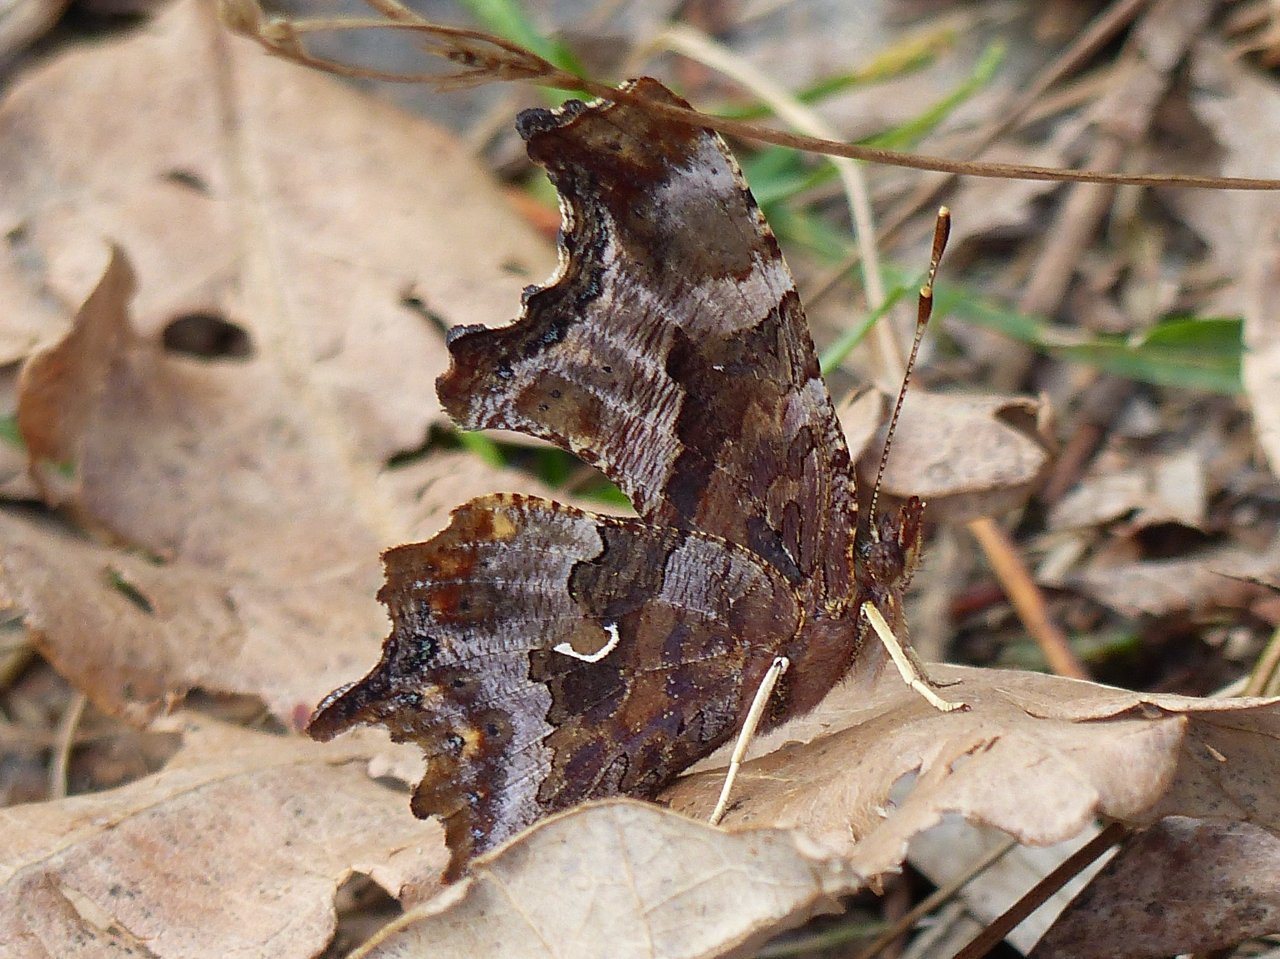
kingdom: Animalia
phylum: Arthropoda
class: Insecta
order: Lepidoptera
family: Nymphalidae
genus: Polygonia
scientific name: Polygonia comma
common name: Eastern Comma
